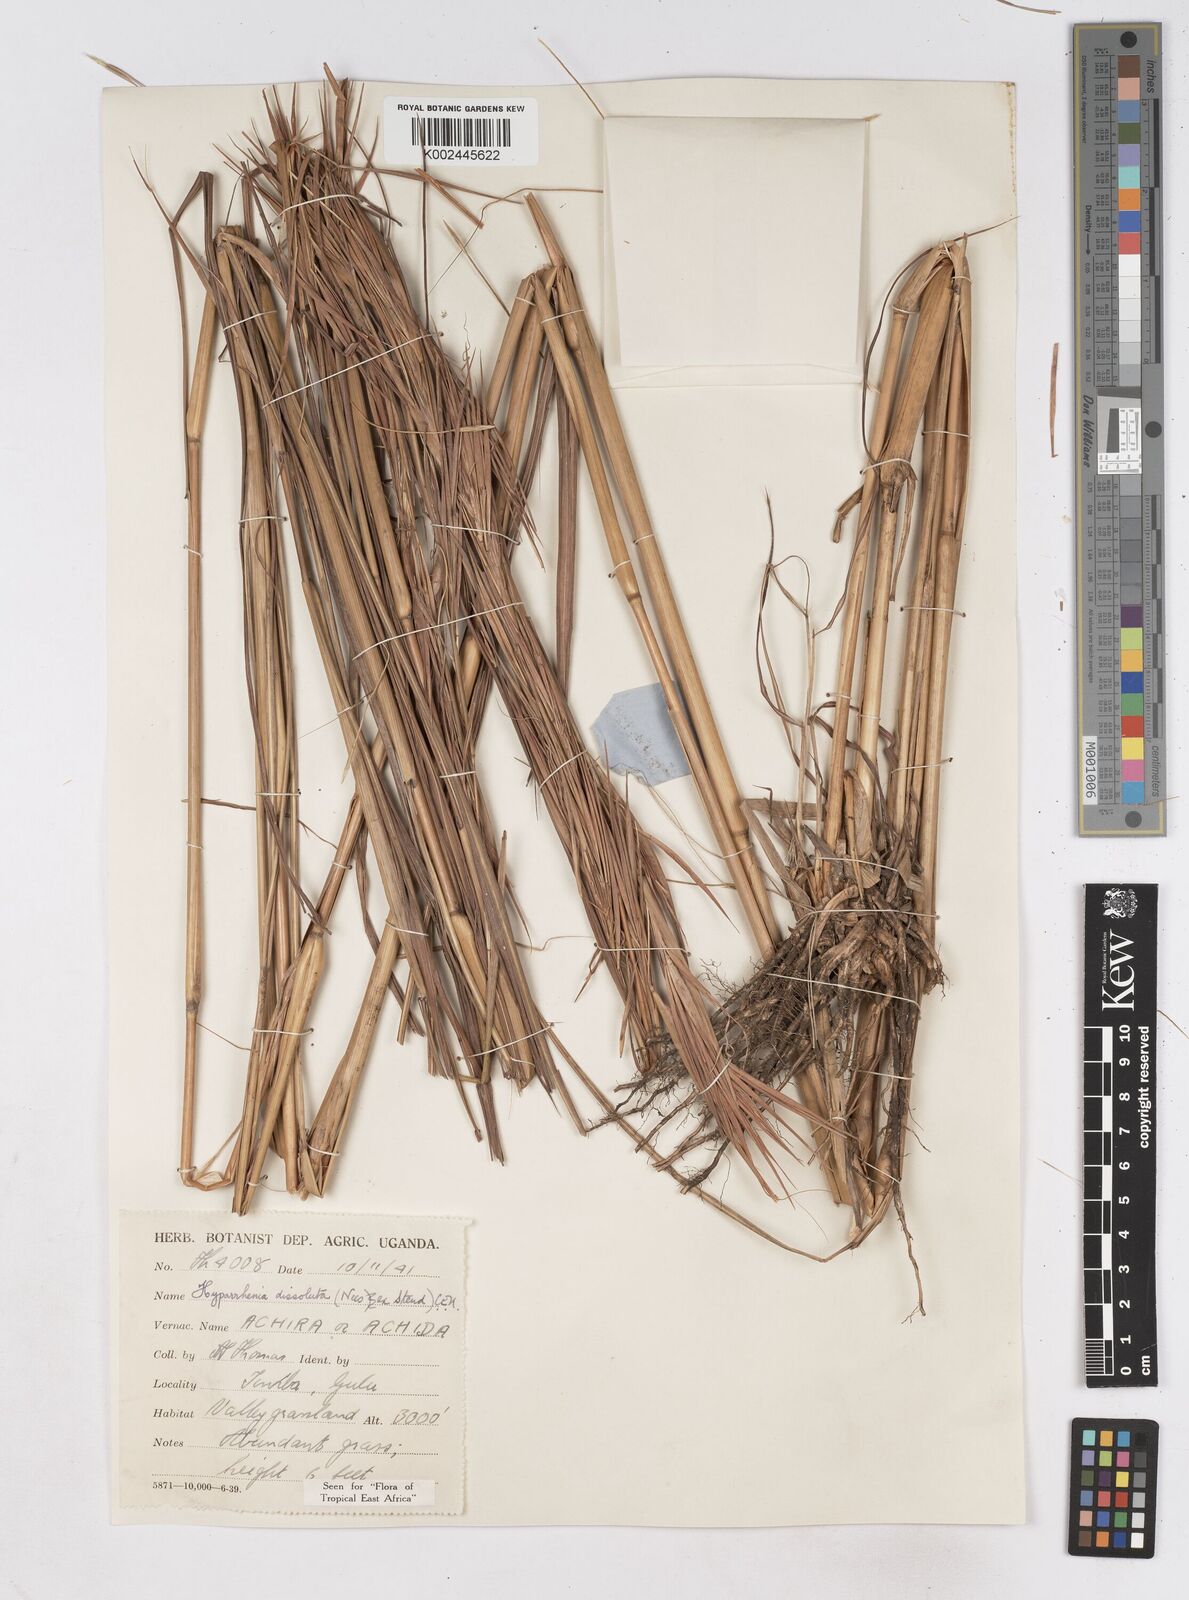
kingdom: Plantae
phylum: Tracheophyta
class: Liliopsida
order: Poales
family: Poaceae
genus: Hyperthelia
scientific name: Hyperthelia dissoluta
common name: Yellow thatching grass
